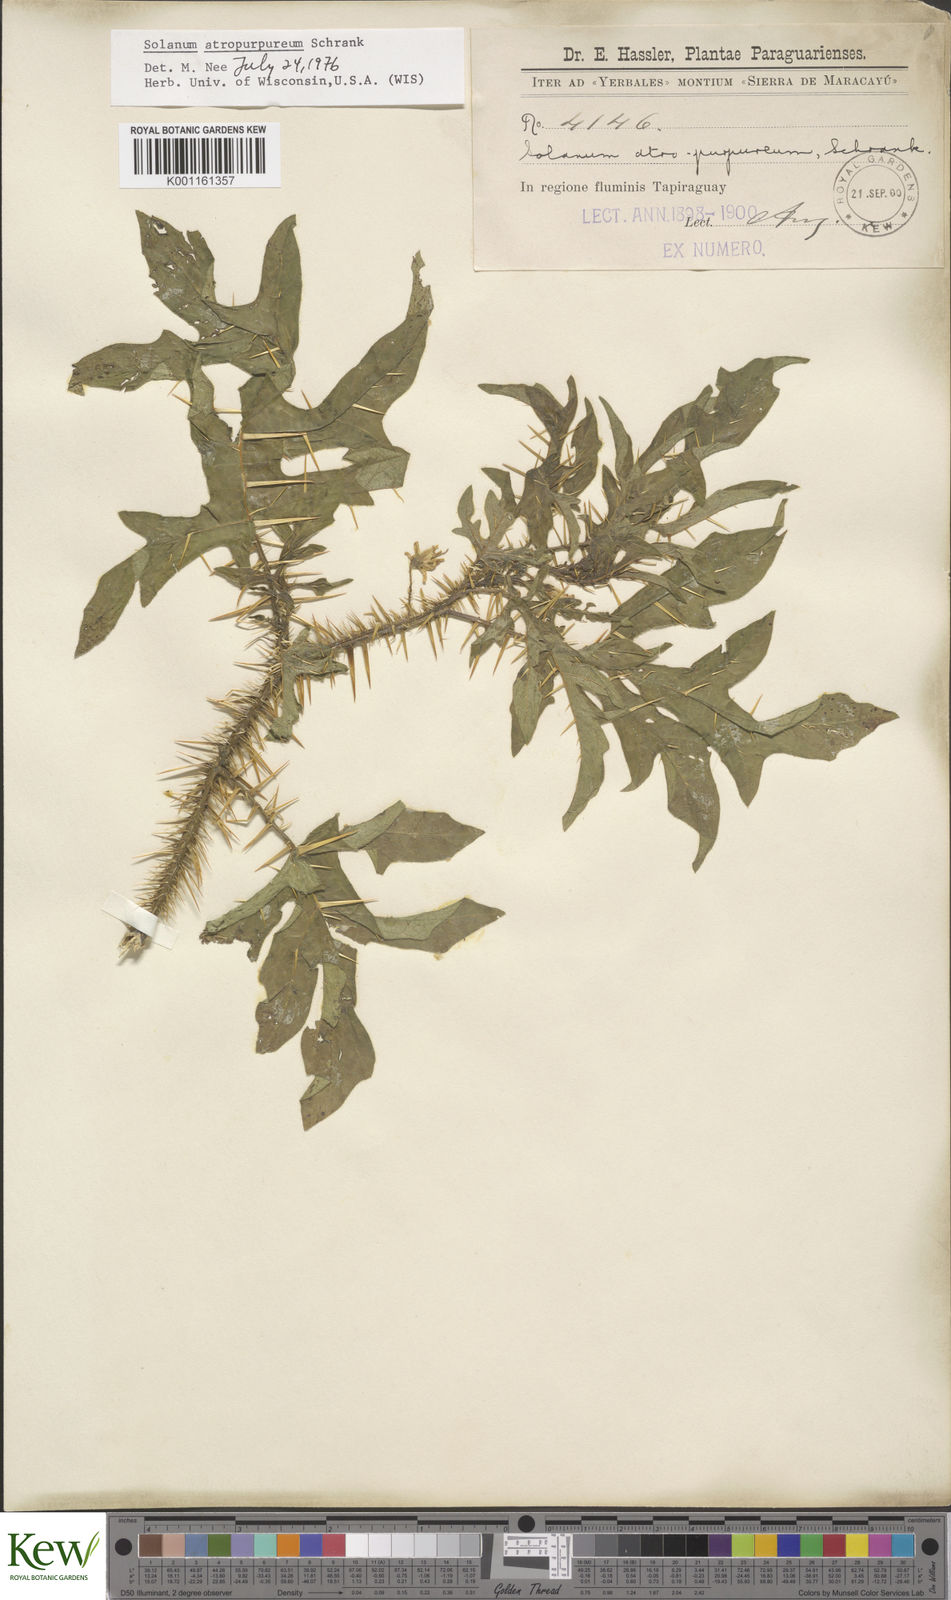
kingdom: Plantae
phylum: Tracheophyta
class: Magnoliopsida
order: Solanales
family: Solanaceae
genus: Solanum
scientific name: Solanum atropurpureum
